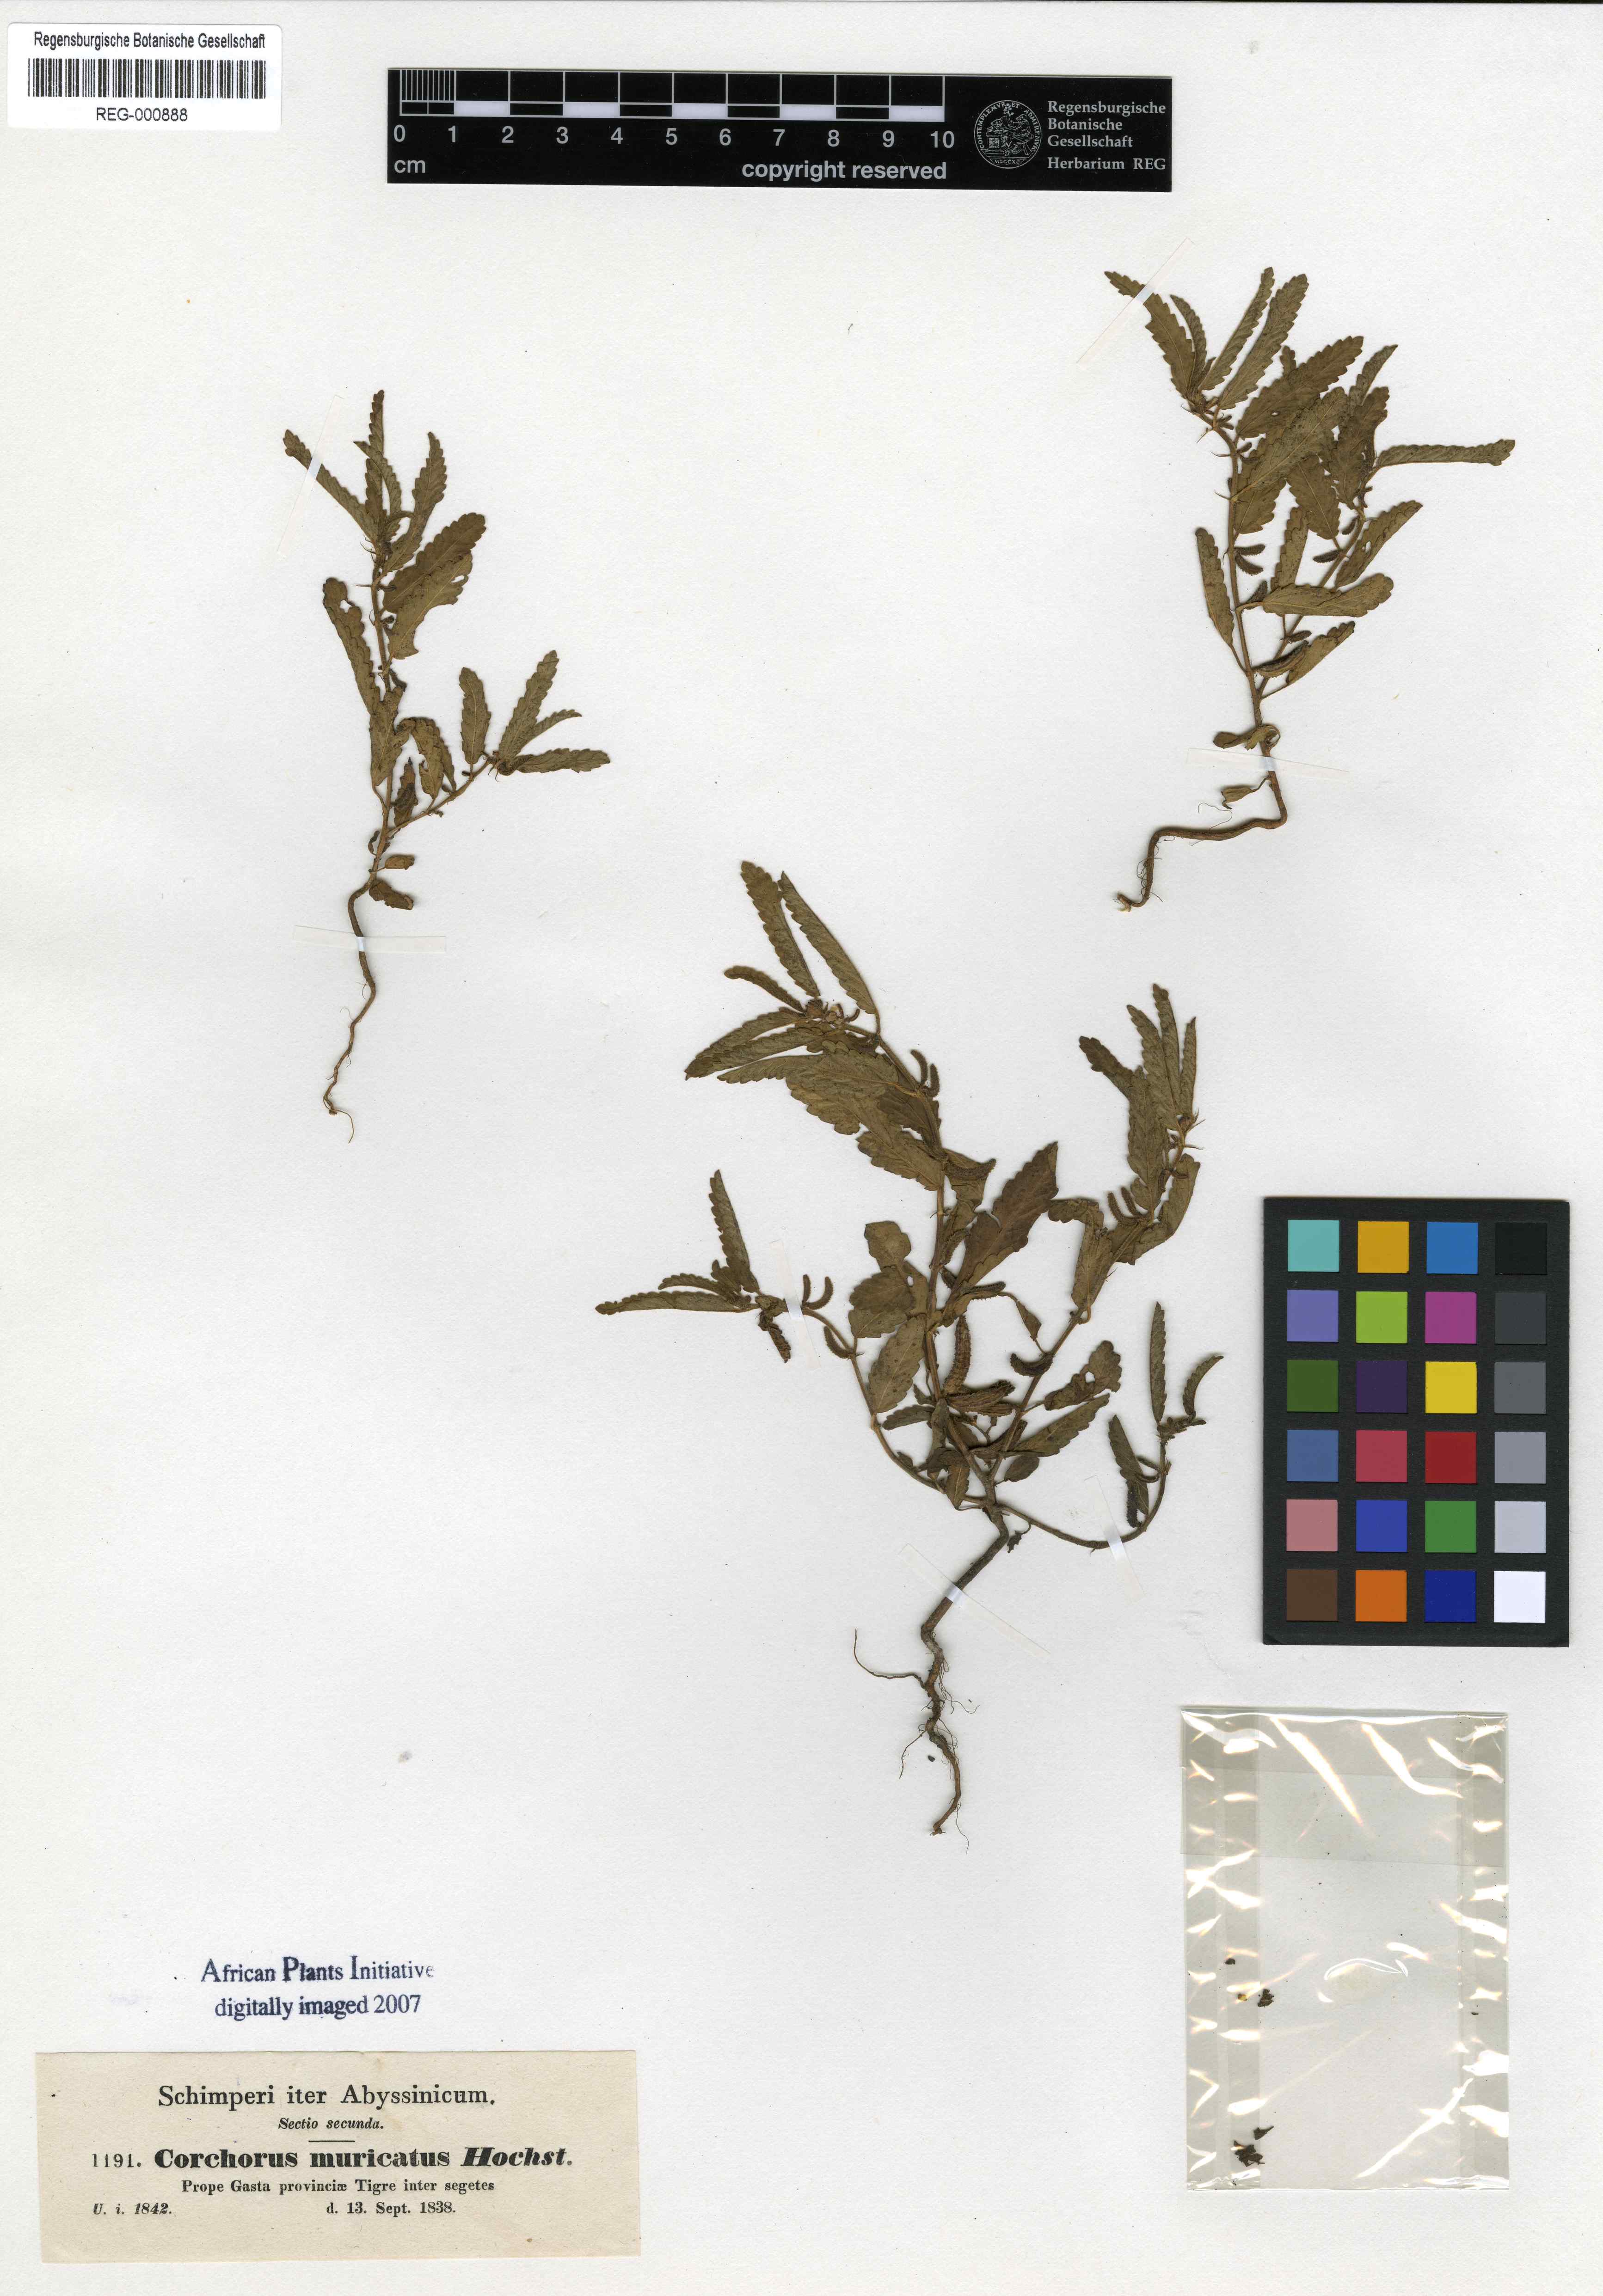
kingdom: Plantae
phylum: Tracheophyta
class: Magnoliopsida
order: Malvales
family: Malvaceae
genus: Corchorus
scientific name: Corchorus schimperi
